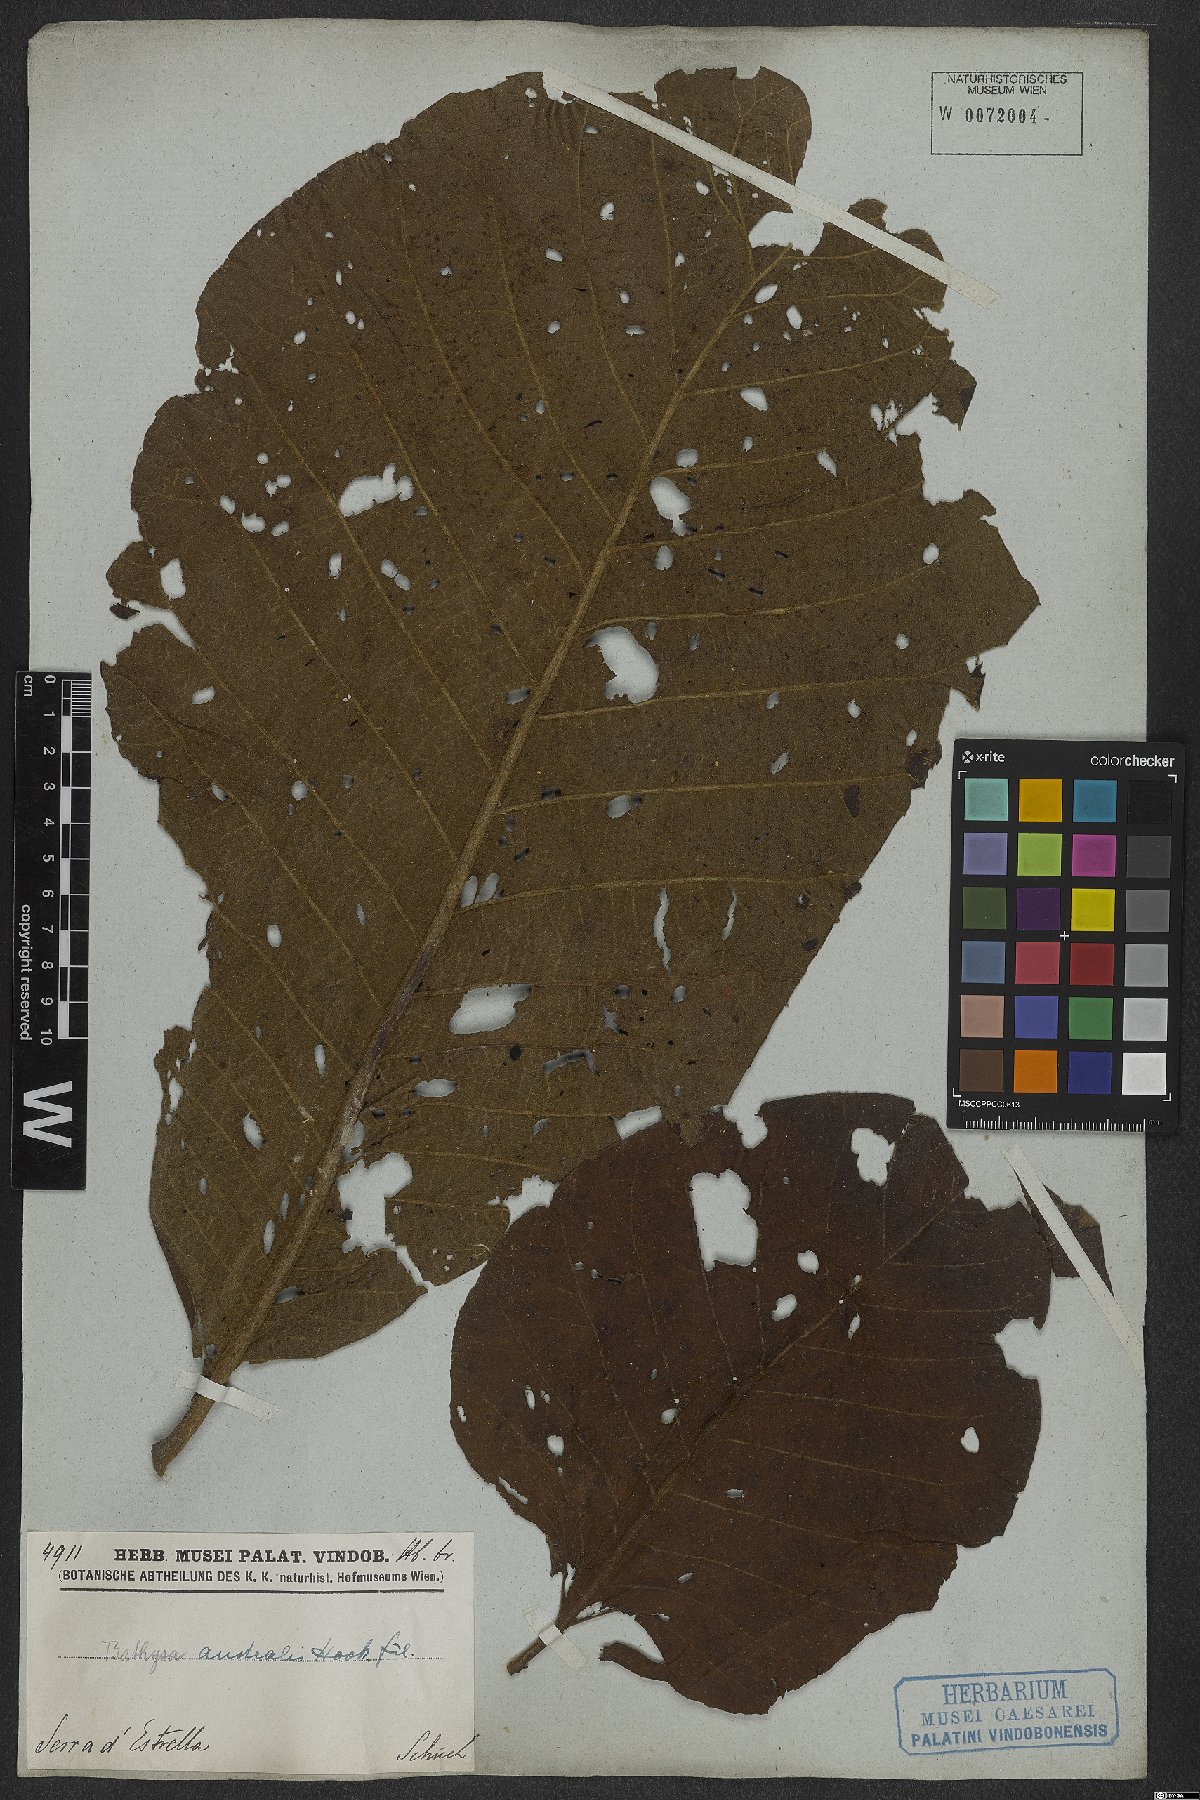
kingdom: Plantae
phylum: Tracheophyta
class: Magnoliopsida
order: Gentianales
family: Rubiaceae
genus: Bathysa
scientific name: Bathysa australis
